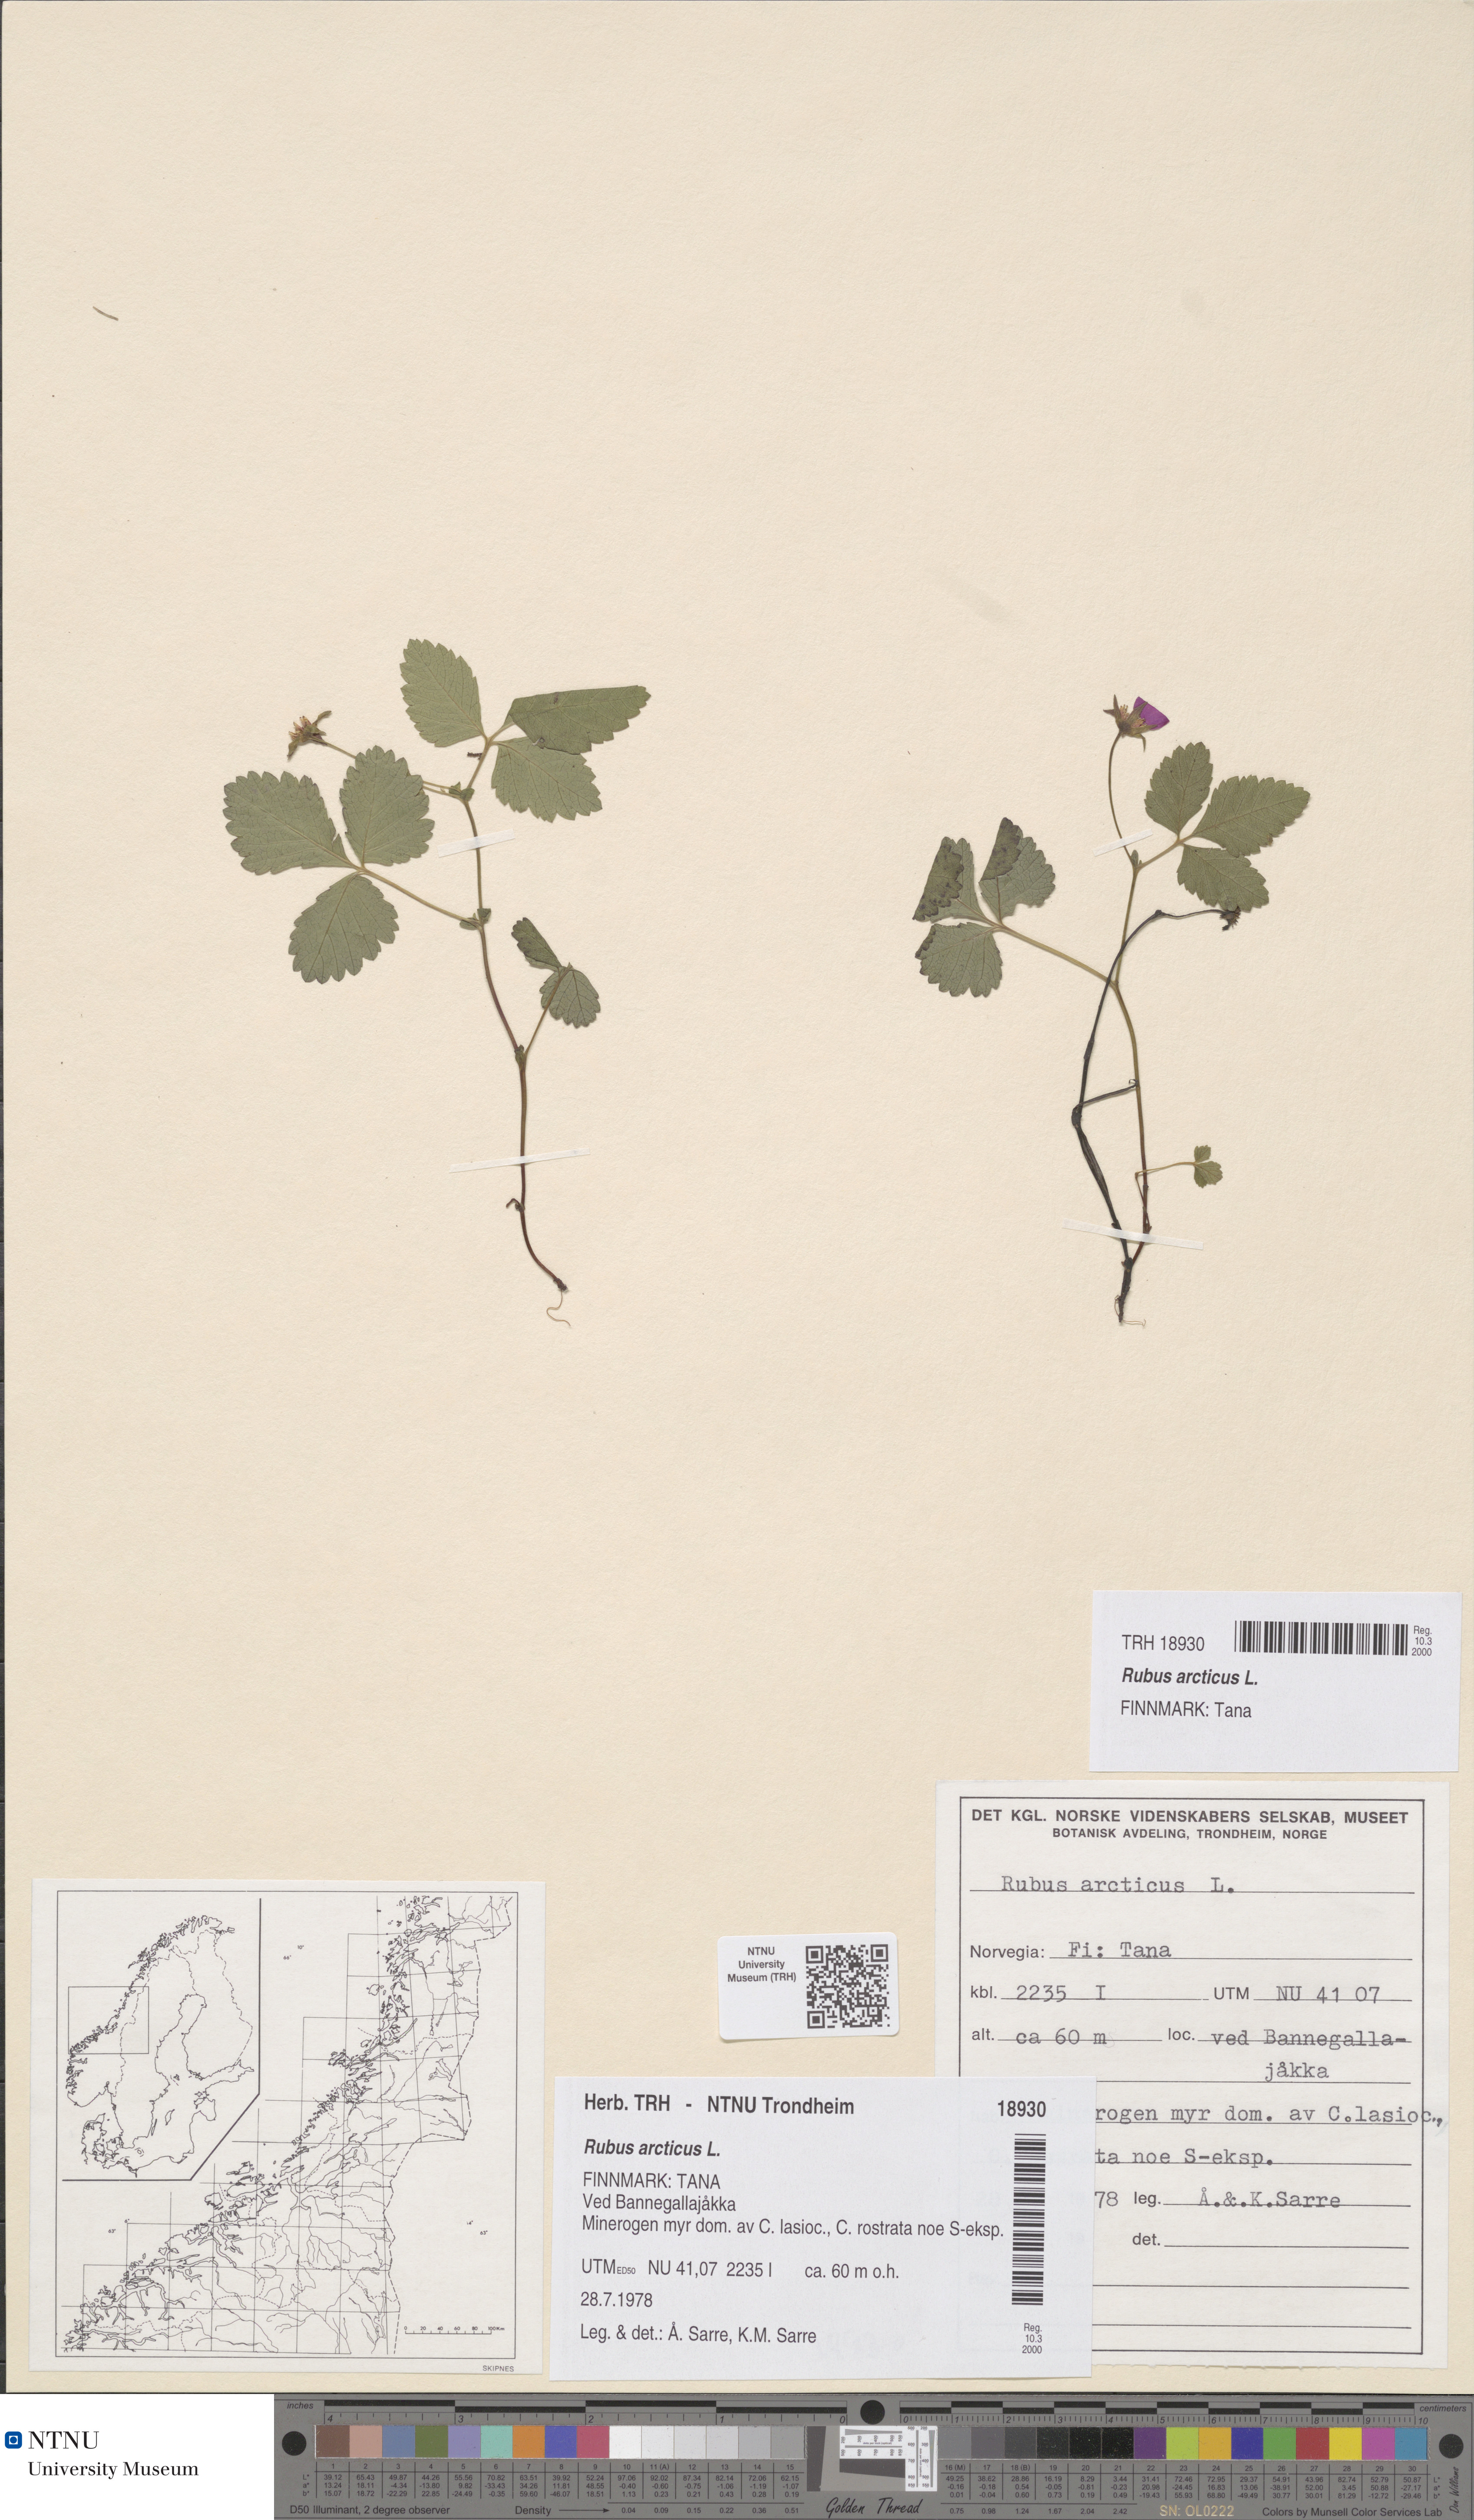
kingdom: Plantae
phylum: Tracheophyta
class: Magnoliopsida
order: Rosales
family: Rosaceae
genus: Rubus
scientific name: Rubus arcticus
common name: Arctic bramble
